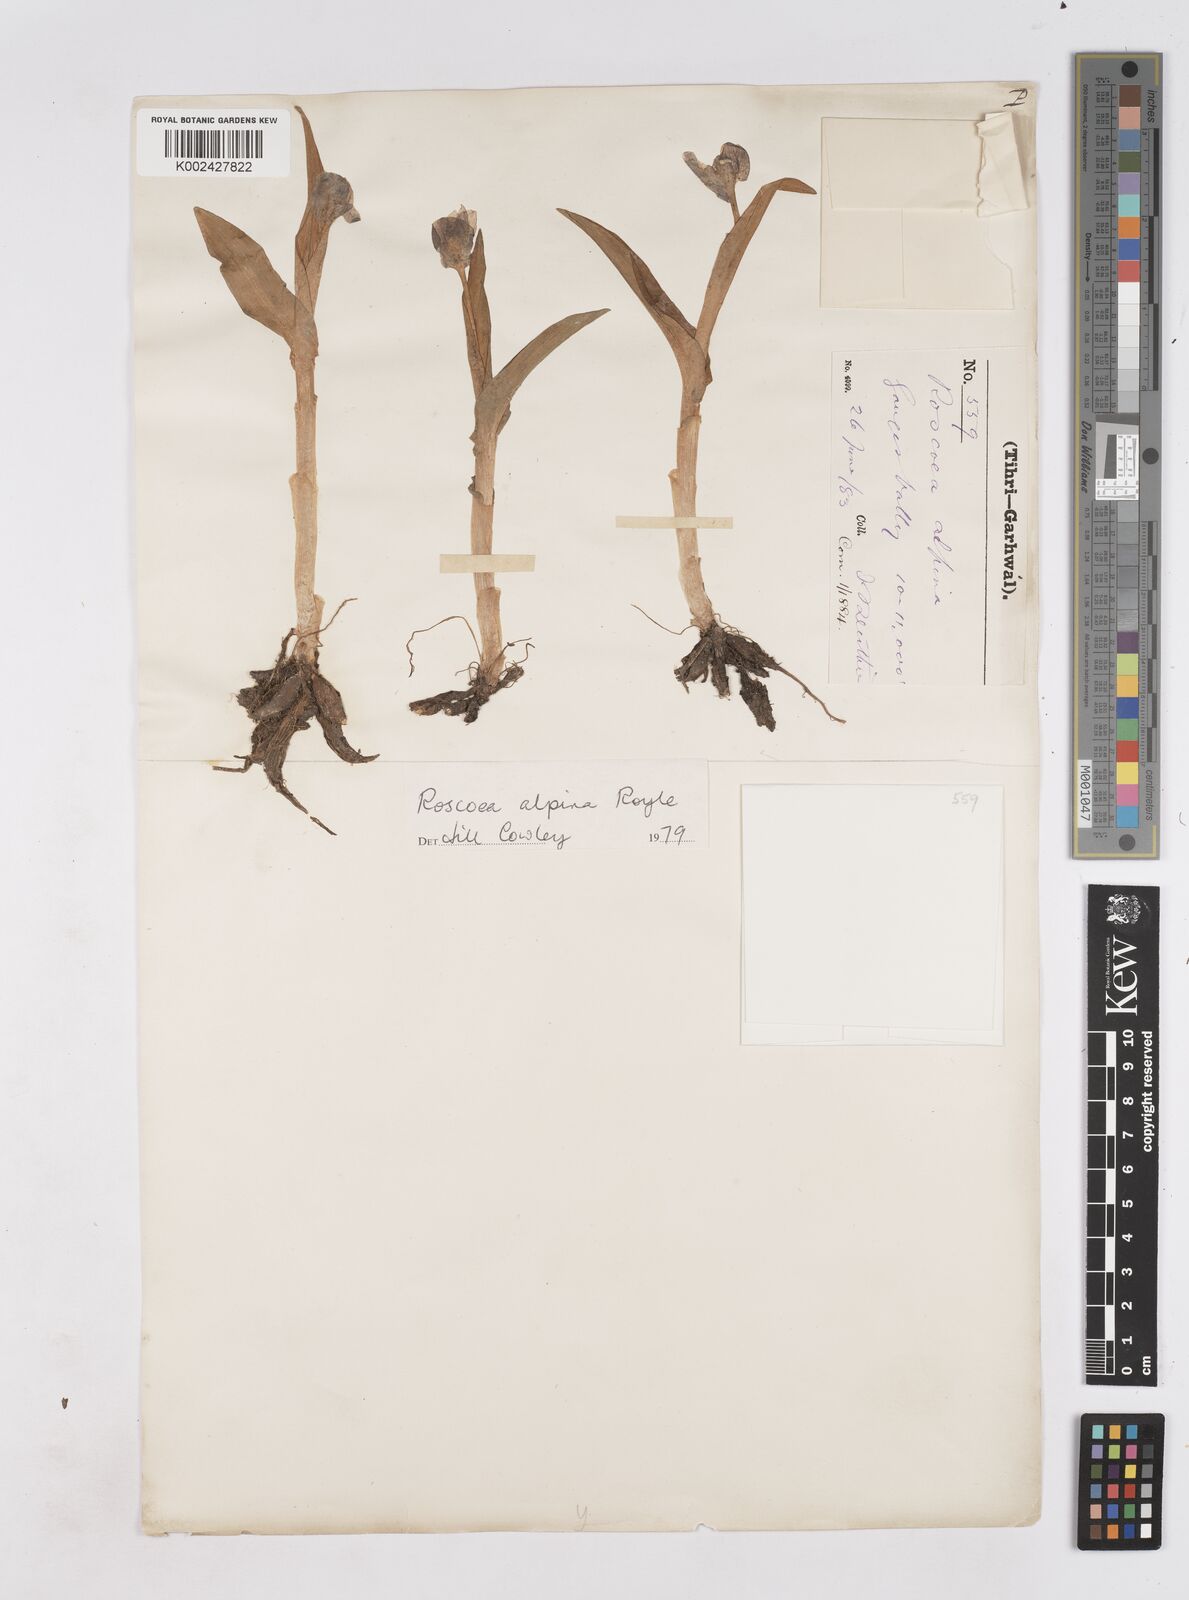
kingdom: Plantae
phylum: Tracheophyta
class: Liliopsida
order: Zingiberales
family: Zingiberaceae
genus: Roscoea
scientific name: Roscoea alpina
